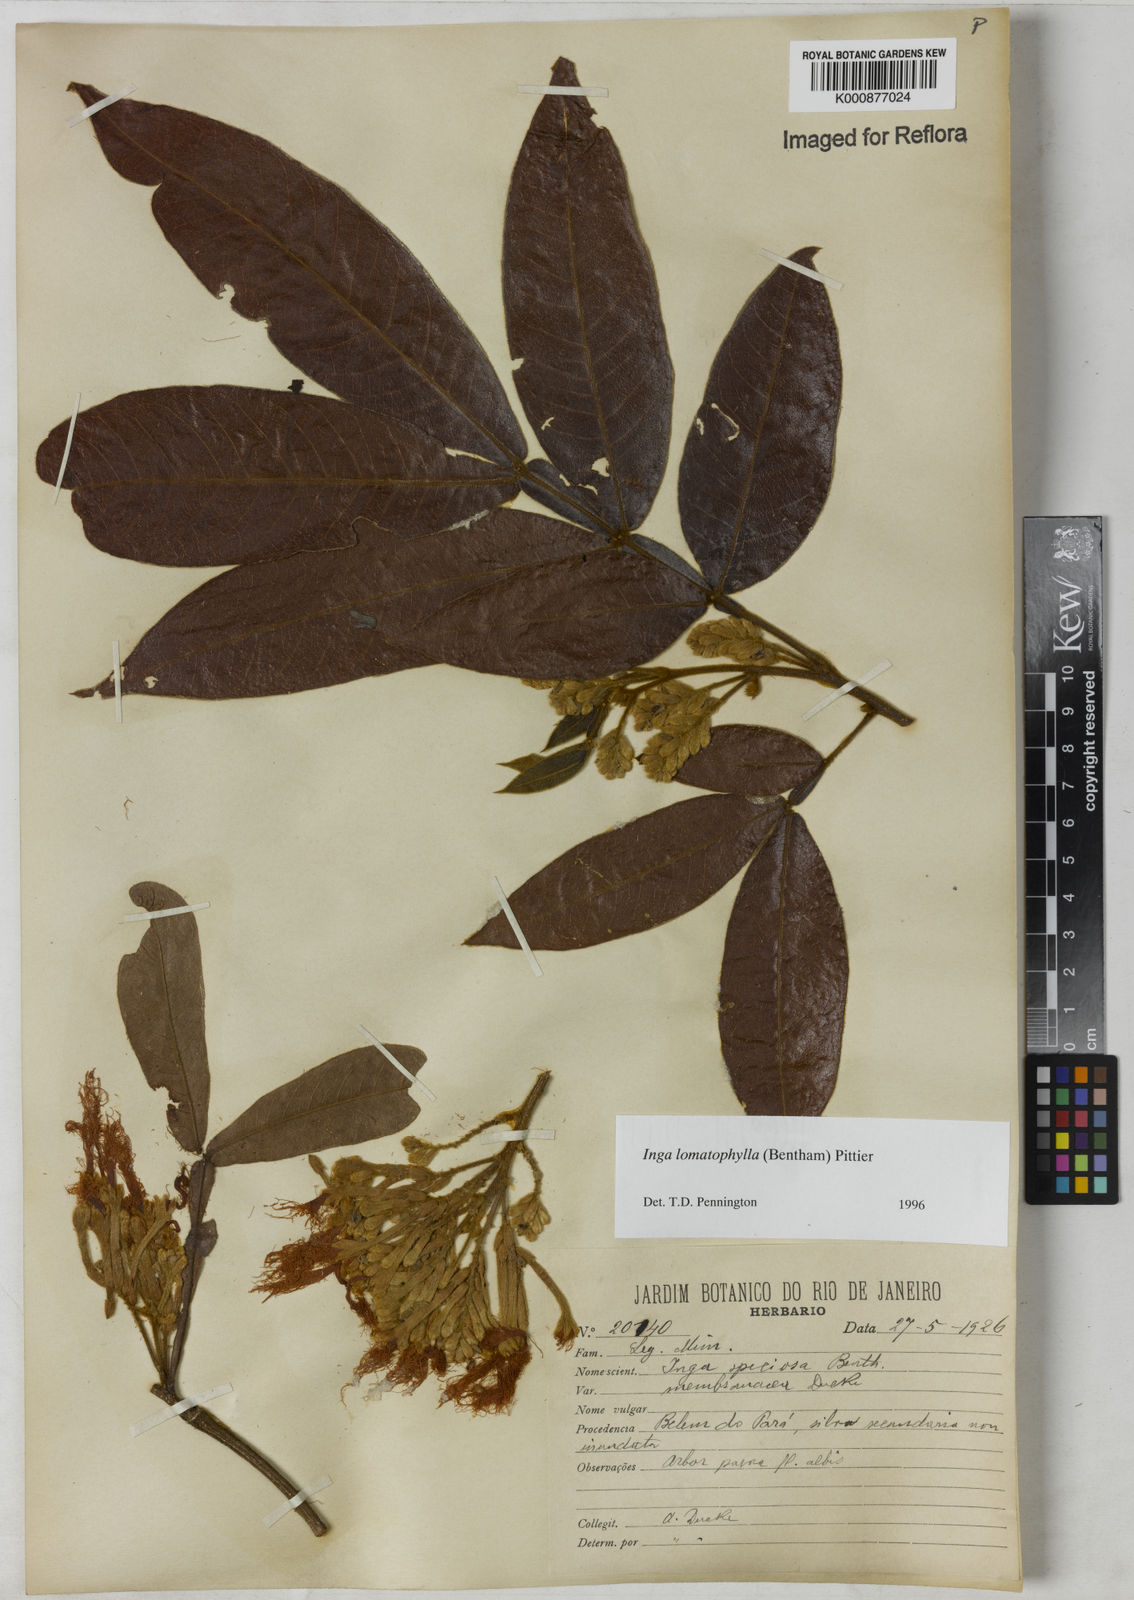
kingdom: Plantae
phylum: Tracheophyta
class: Magnoliopsida
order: Fabales
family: Fabaceae
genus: Inga
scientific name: Inga lomatophylla
